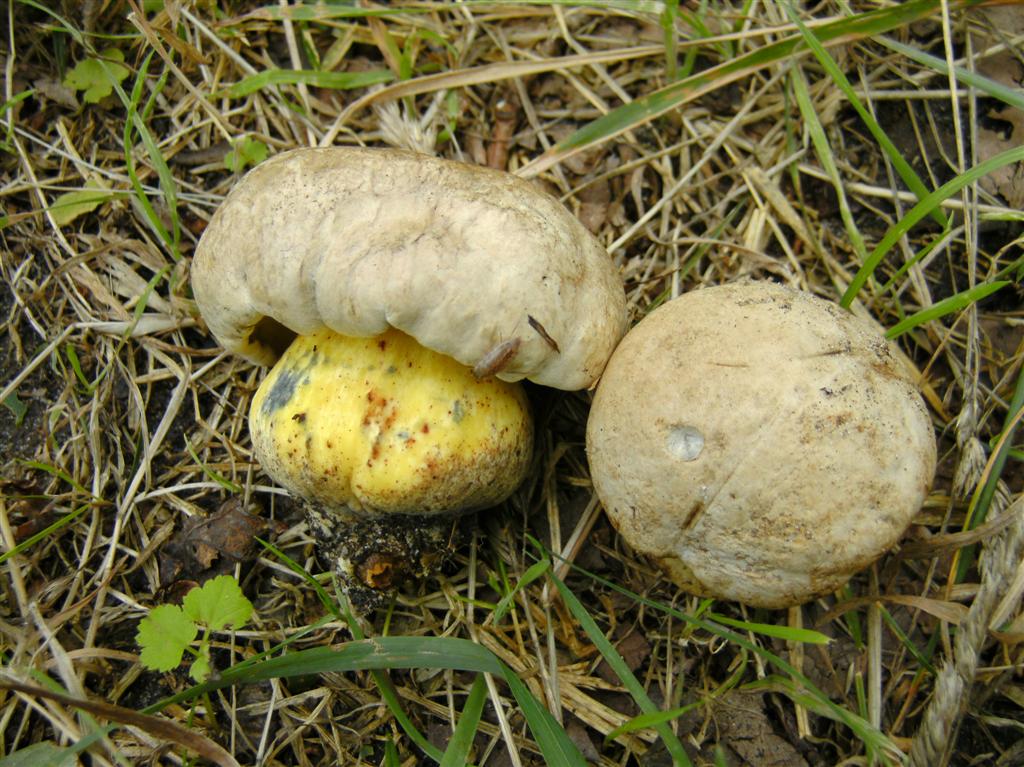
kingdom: Fungi
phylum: Basidiomycota
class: Agaricomycetes
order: Boletales
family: Boletaceae
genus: Caloboletus
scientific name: Caloboletus radicans
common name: rod-rørhat
